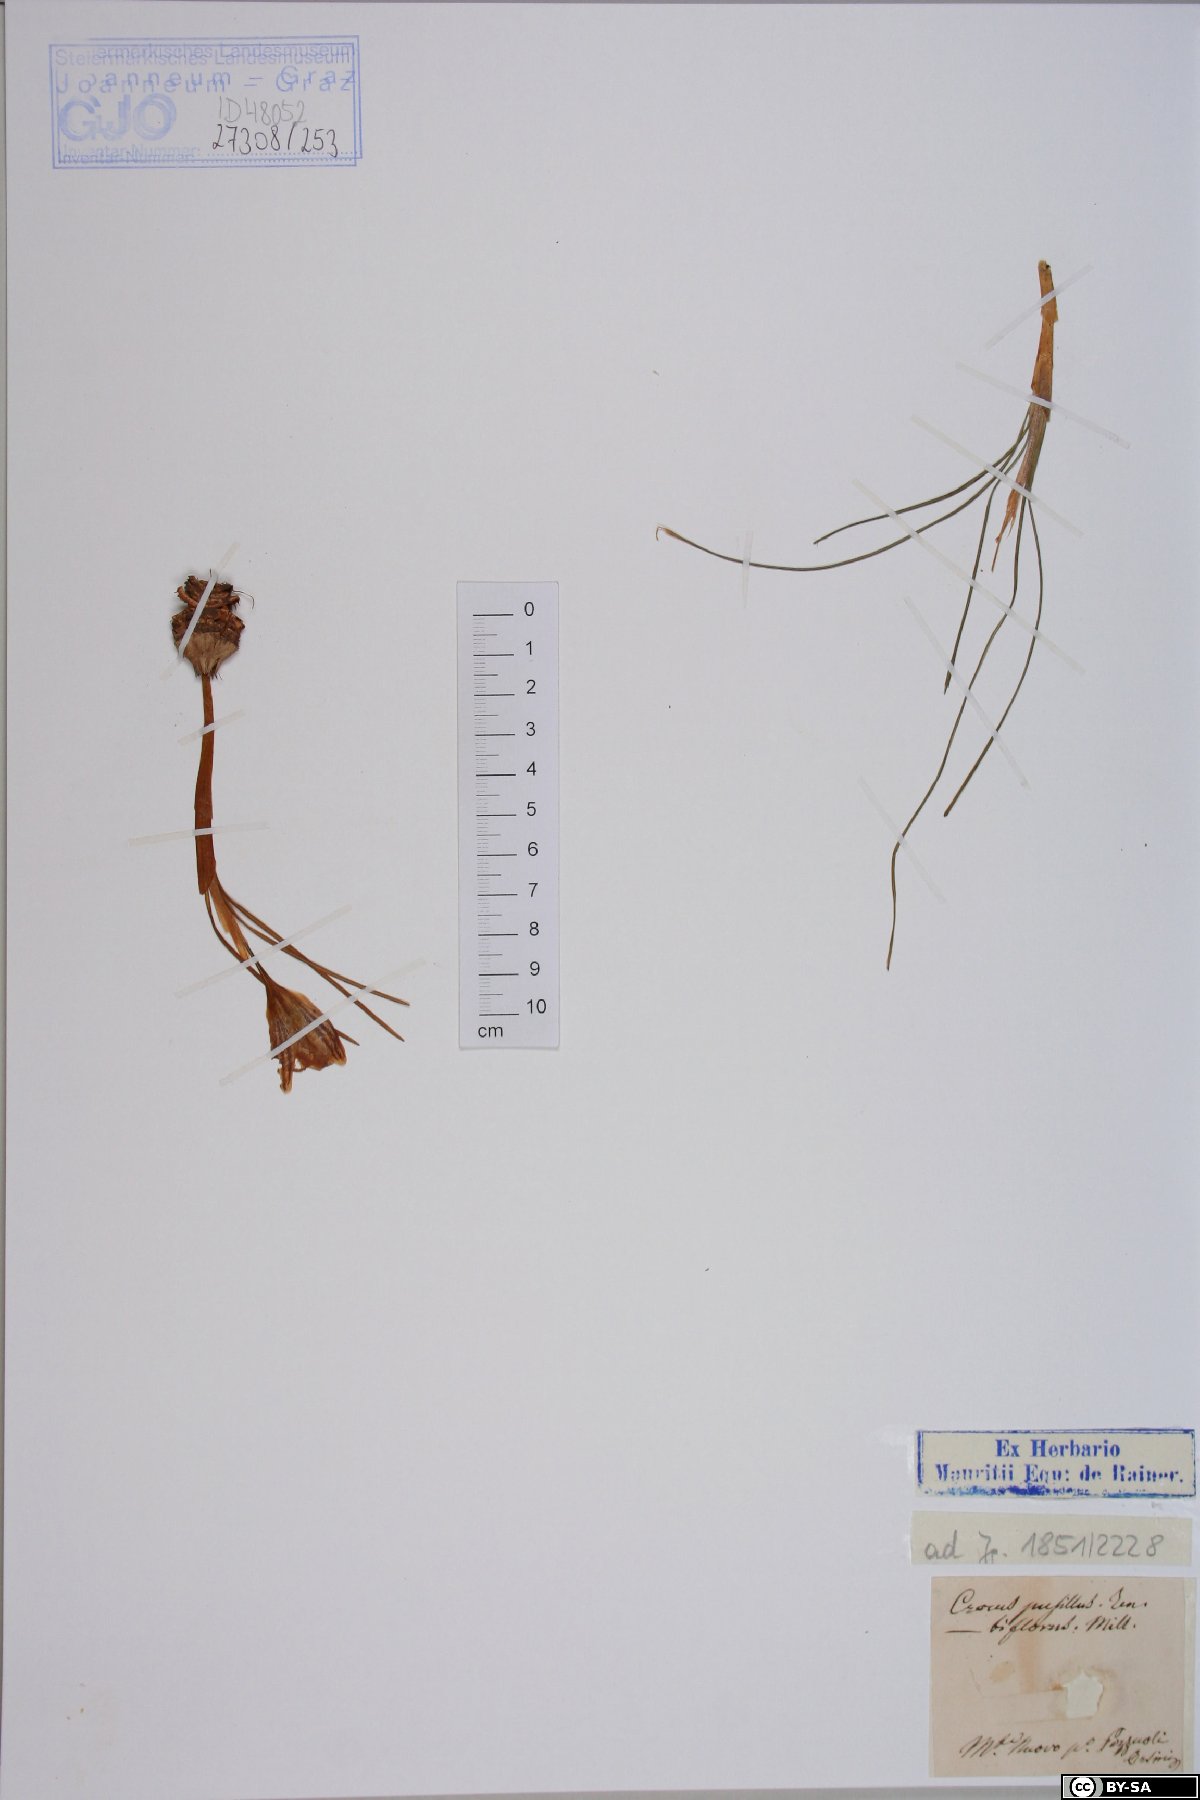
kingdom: Plantae
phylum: Tracheophyta
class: Liliopsida
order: Asparagales
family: Iridaceae
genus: Crocus
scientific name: Crocus biflorus
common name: Silvery crocus
